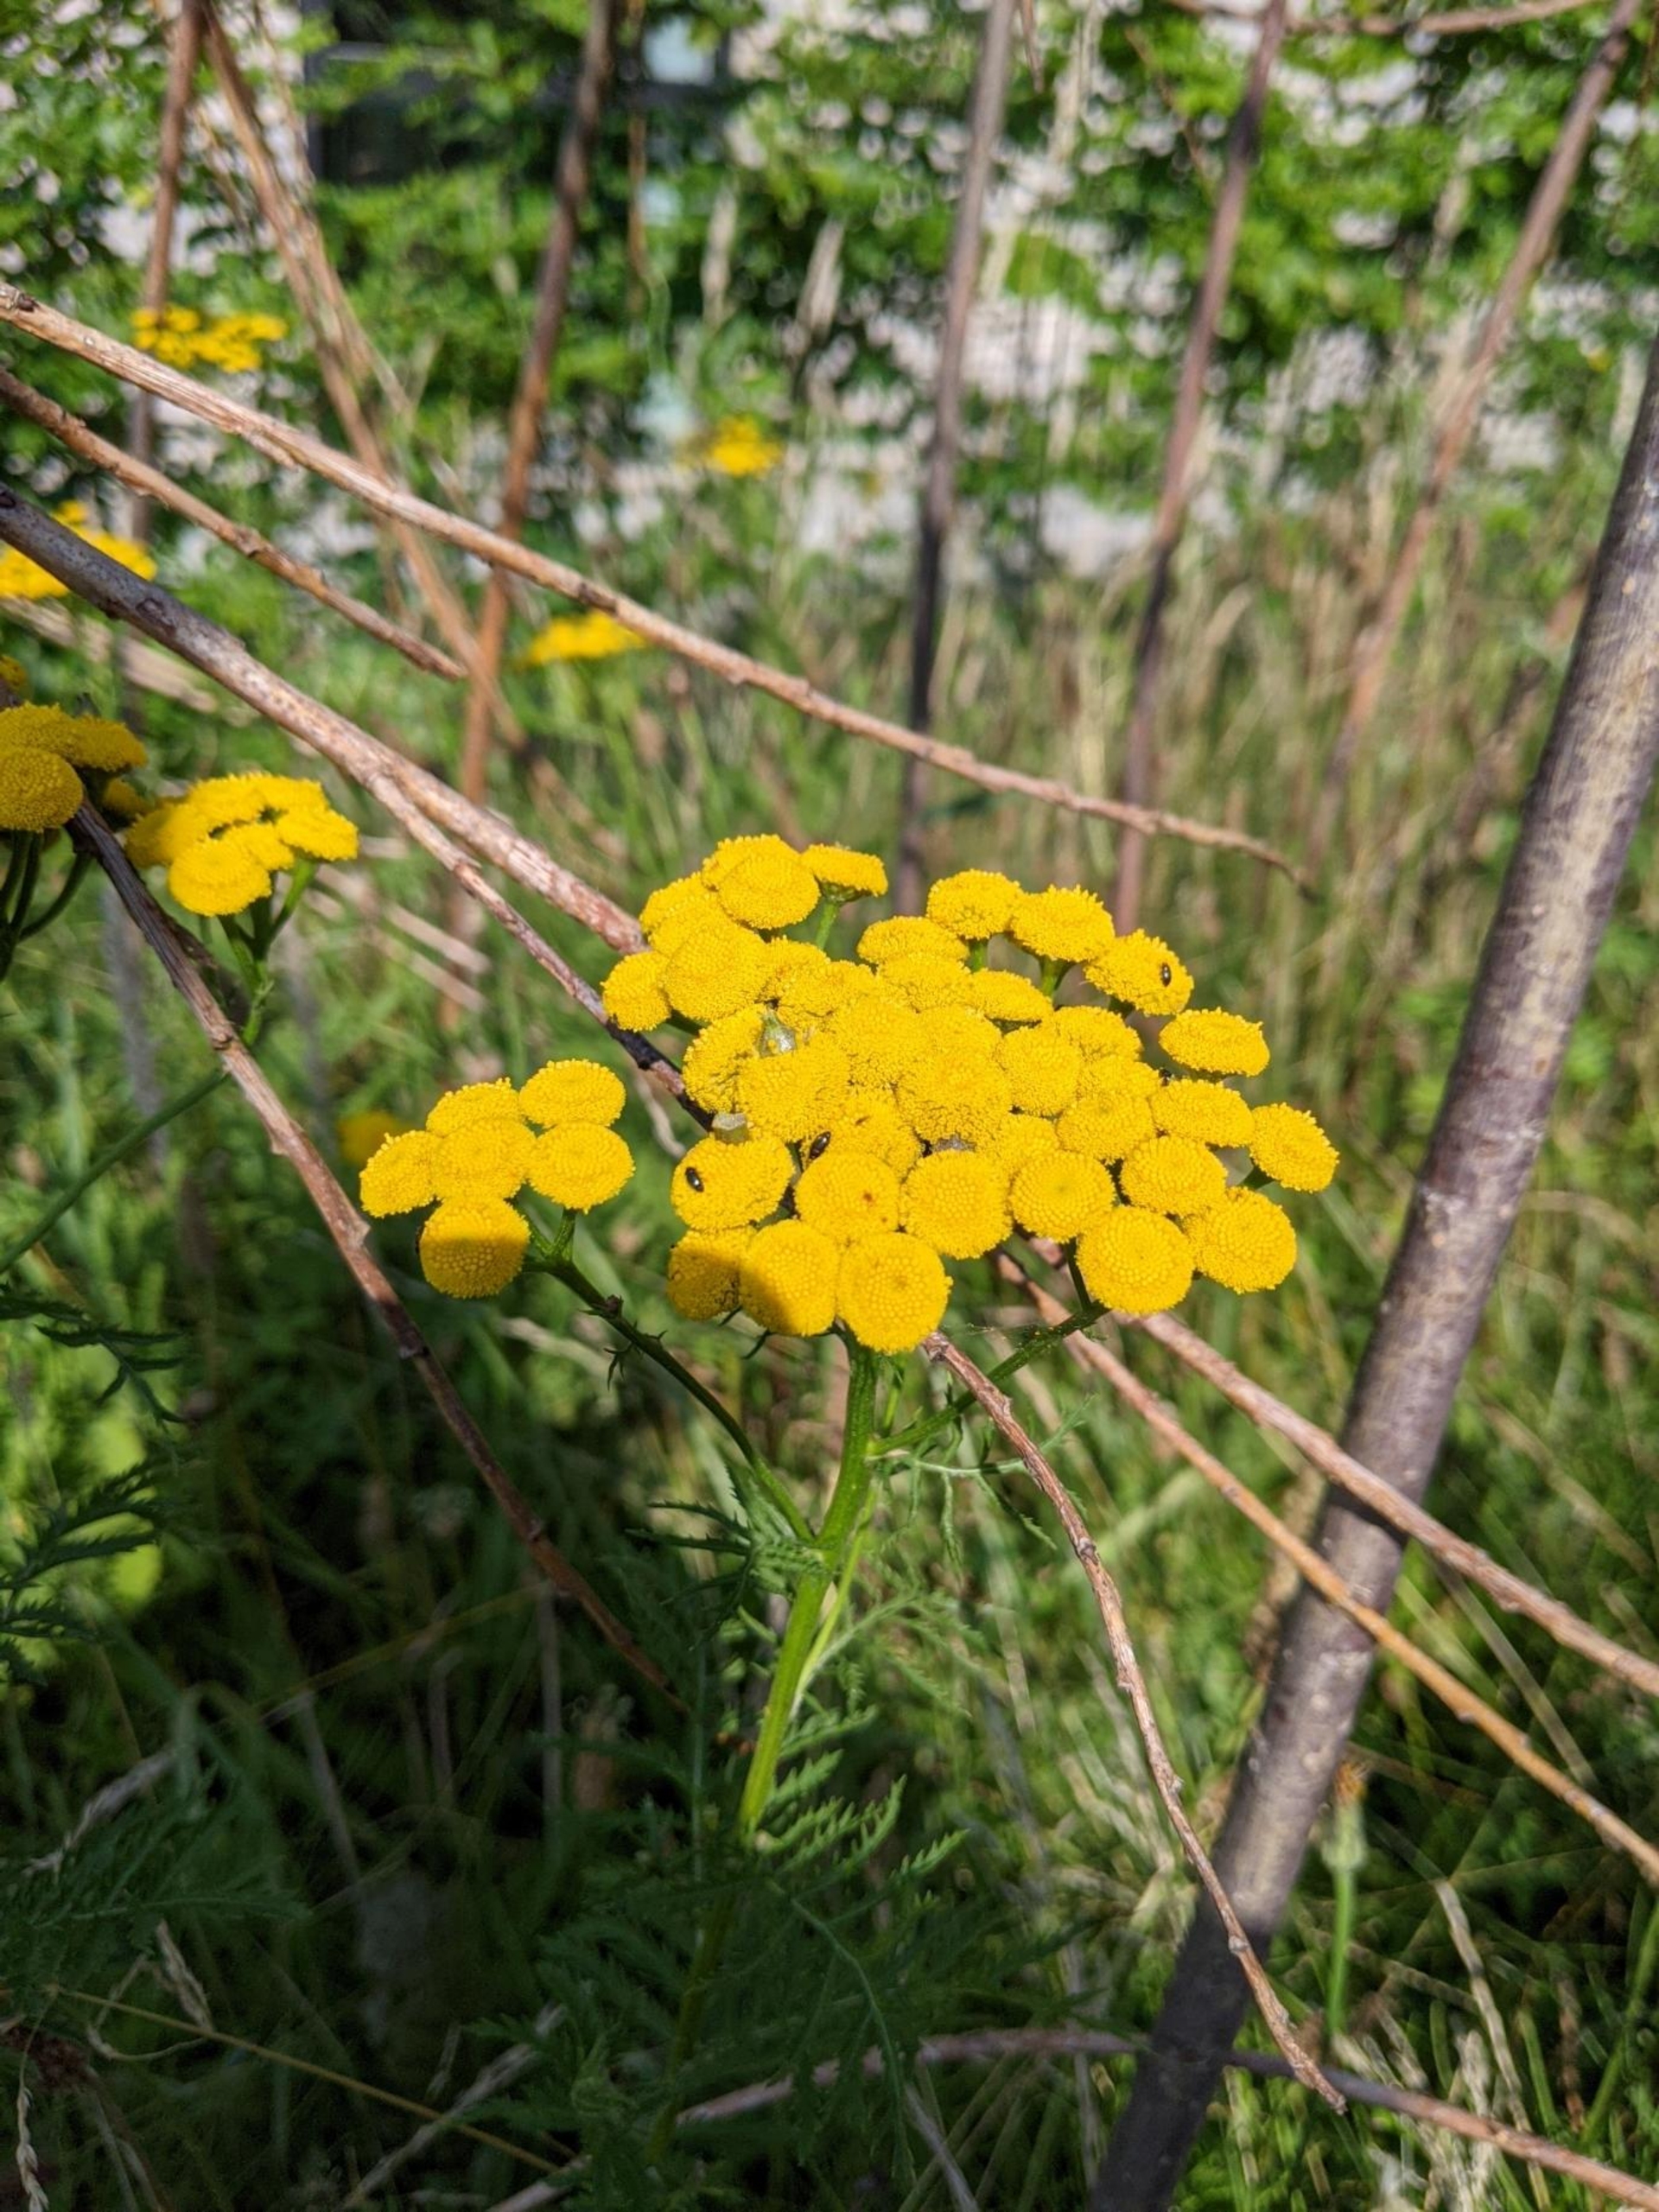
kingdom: Plantae
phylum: Tracheophyta
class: Magnoliopsida
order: Asterales
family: Asteraceae
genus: Tanacetum
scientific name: Tanacetum vulgare
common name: Rejnfan
